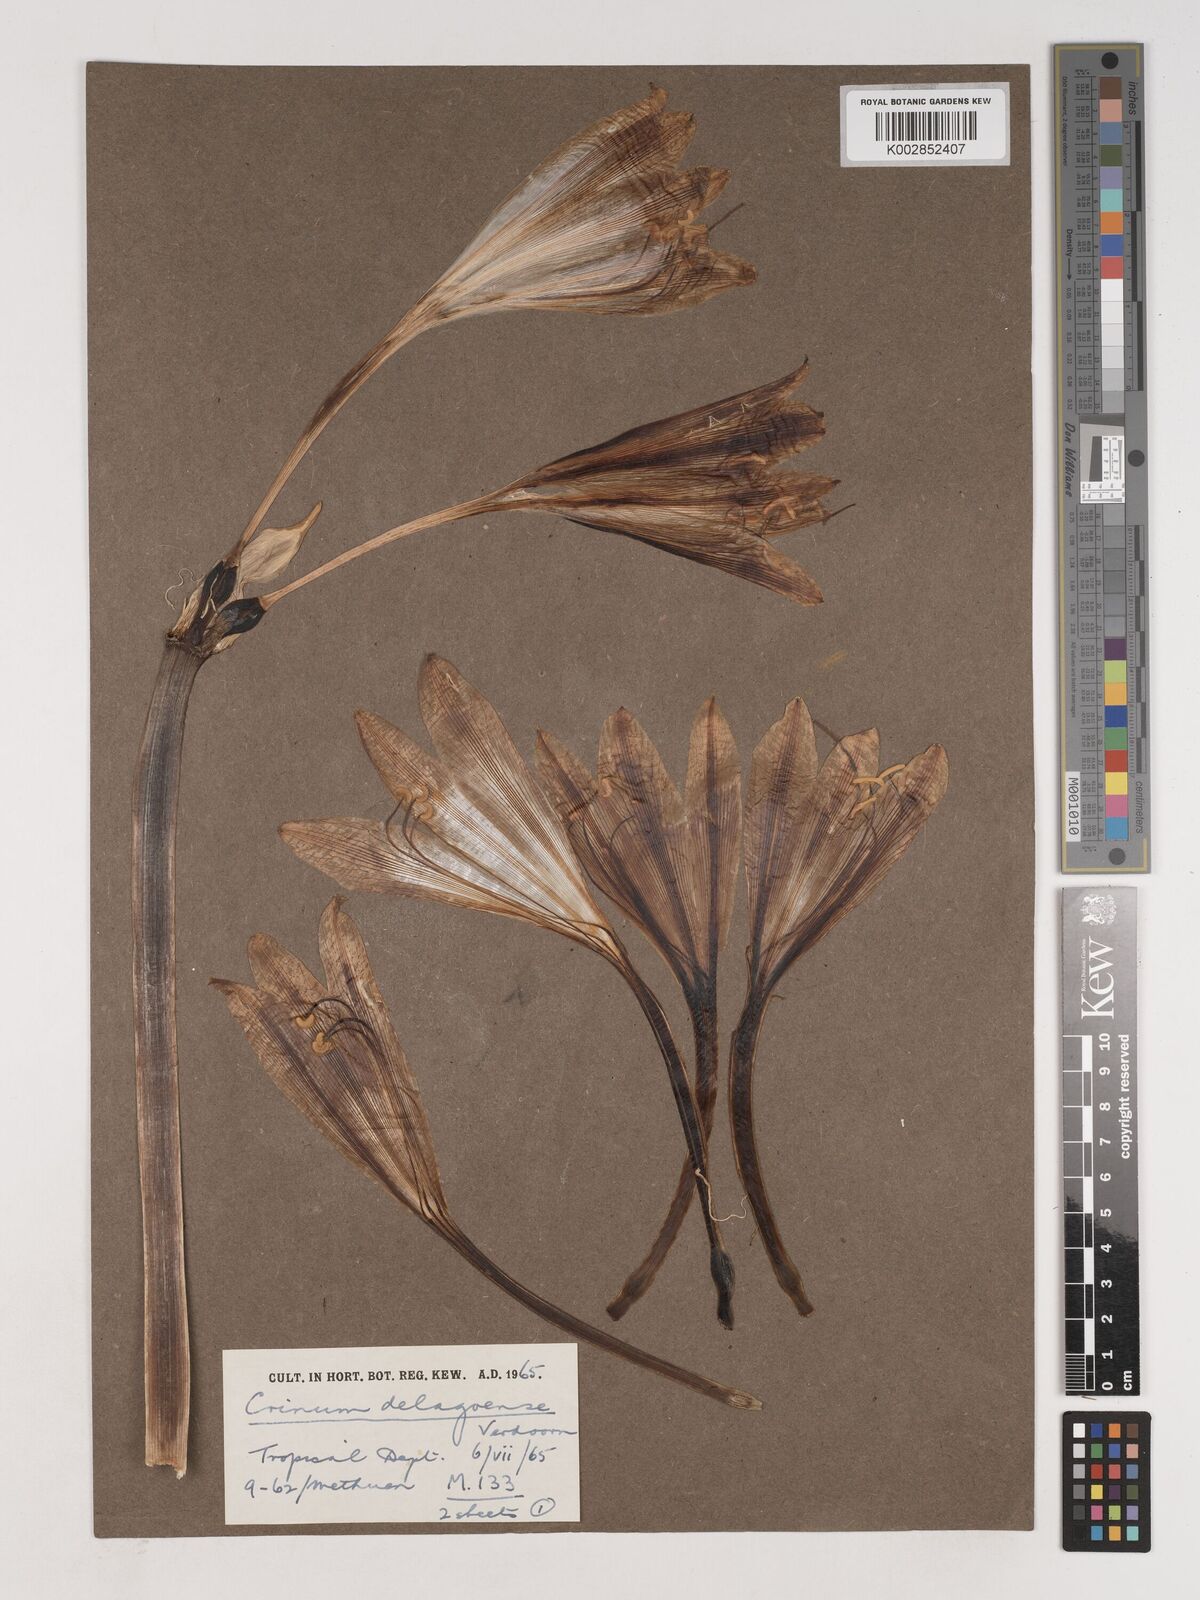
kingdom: Plantae
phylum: Tracheophyta
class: Liliopsida
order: Asparagales
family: Amaryllidaceae
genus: Crinum
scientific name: Crinum stuhlmannii
